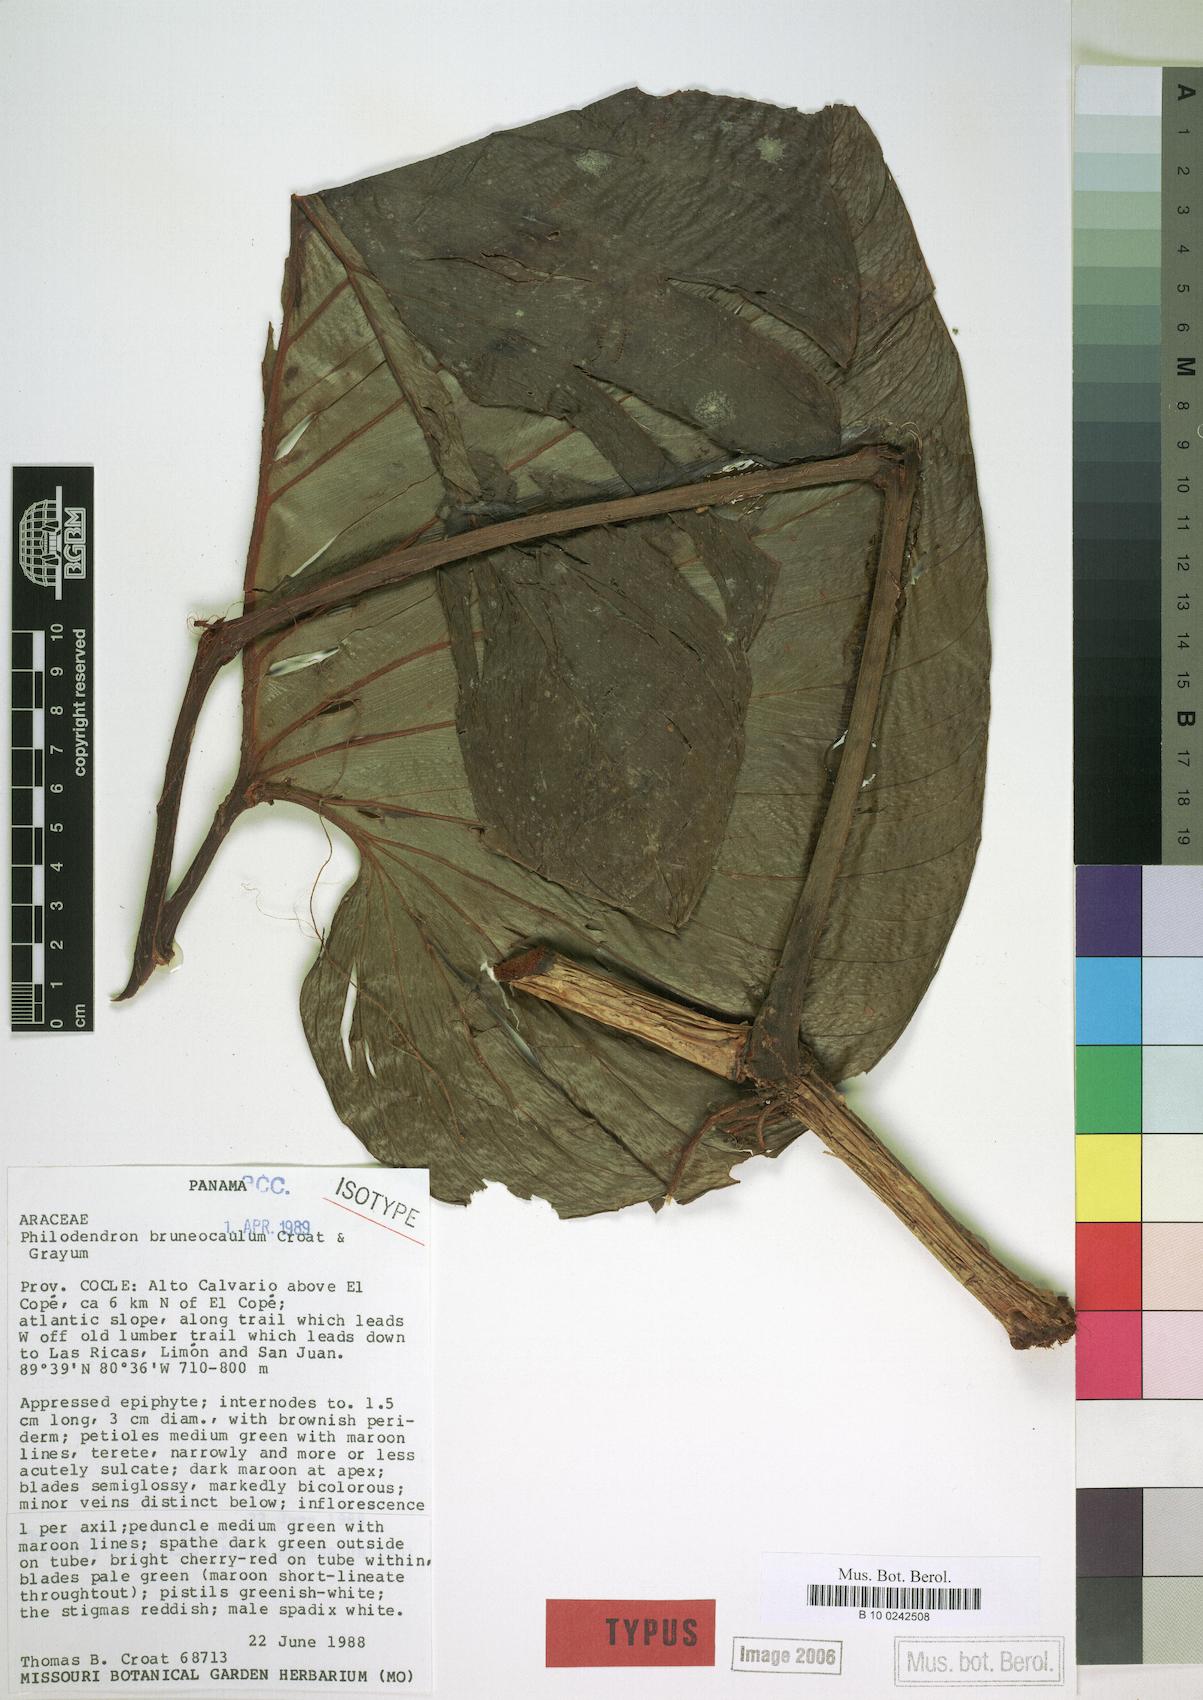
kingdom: Plantae
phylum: Tracheophyta
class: Liliopsida
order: Alismatales
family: Araceae
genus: Philodendron
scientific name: Philodendron brunneicaule
